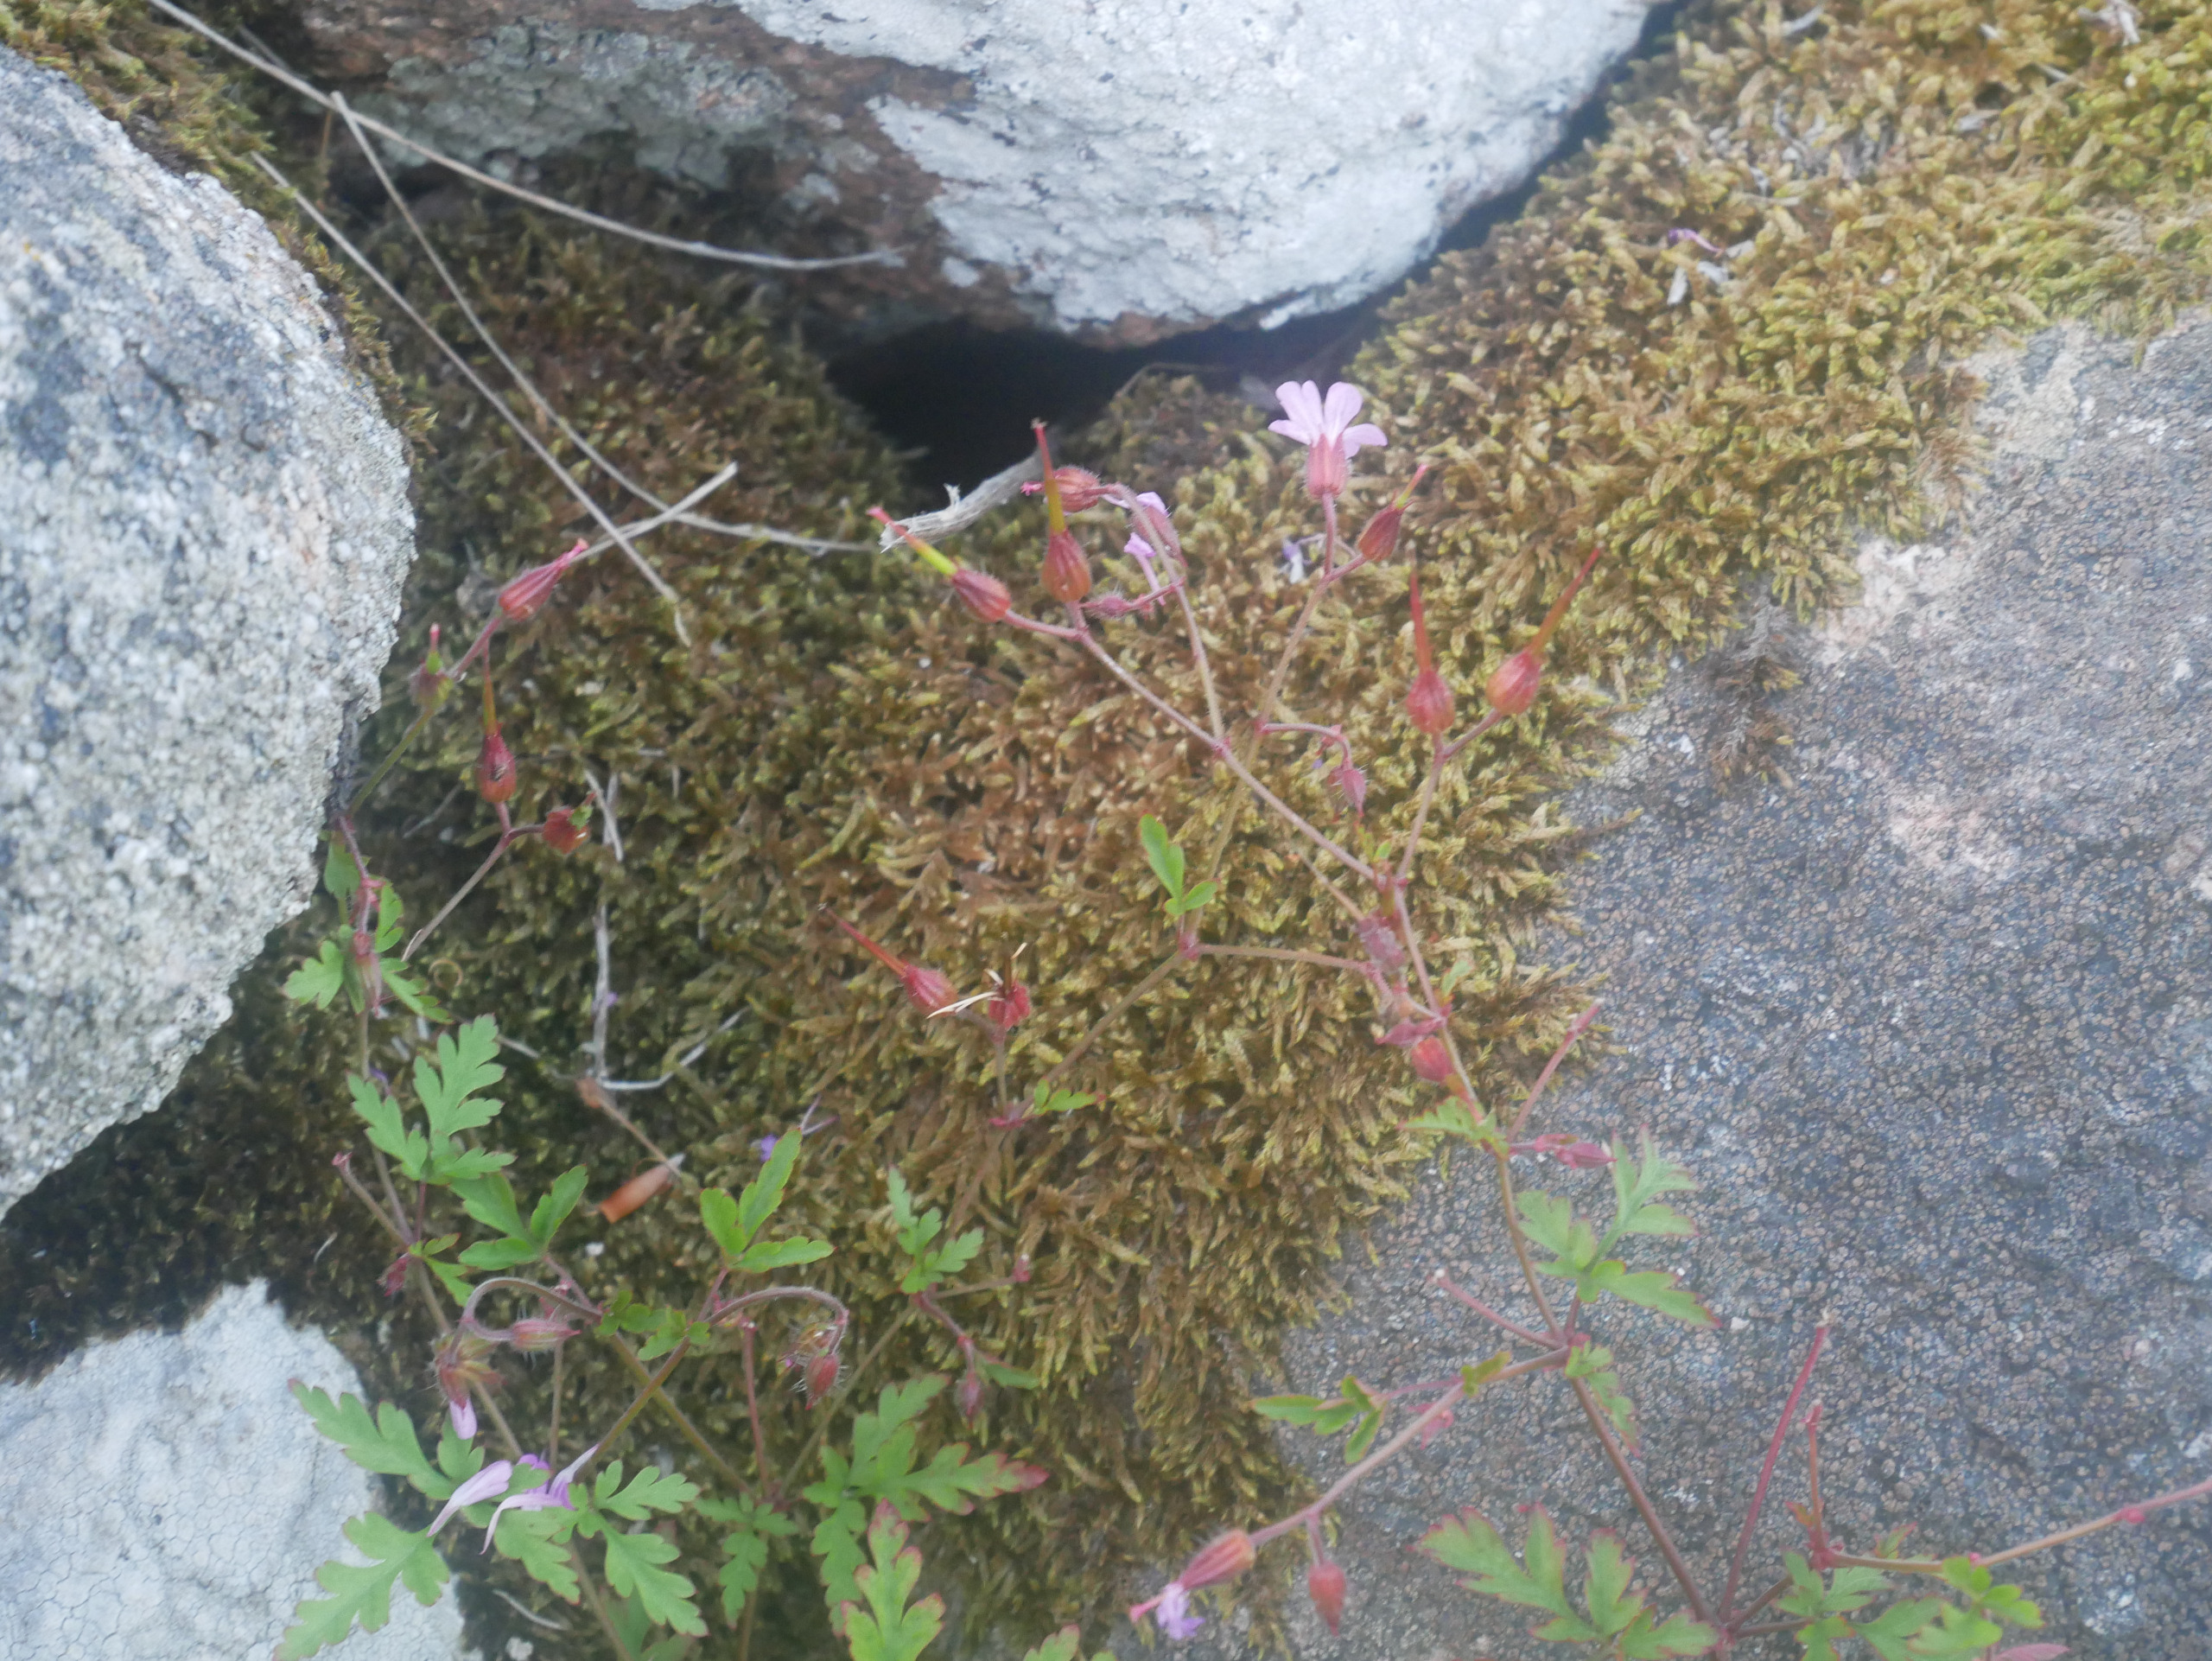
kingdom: Plantae
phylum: Tracheophyta
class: Magnoliopsida
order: Geraniales
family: Geraniaceae
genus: Geranium
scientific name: Geranium robertianum
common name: Stinkende storkenæb
